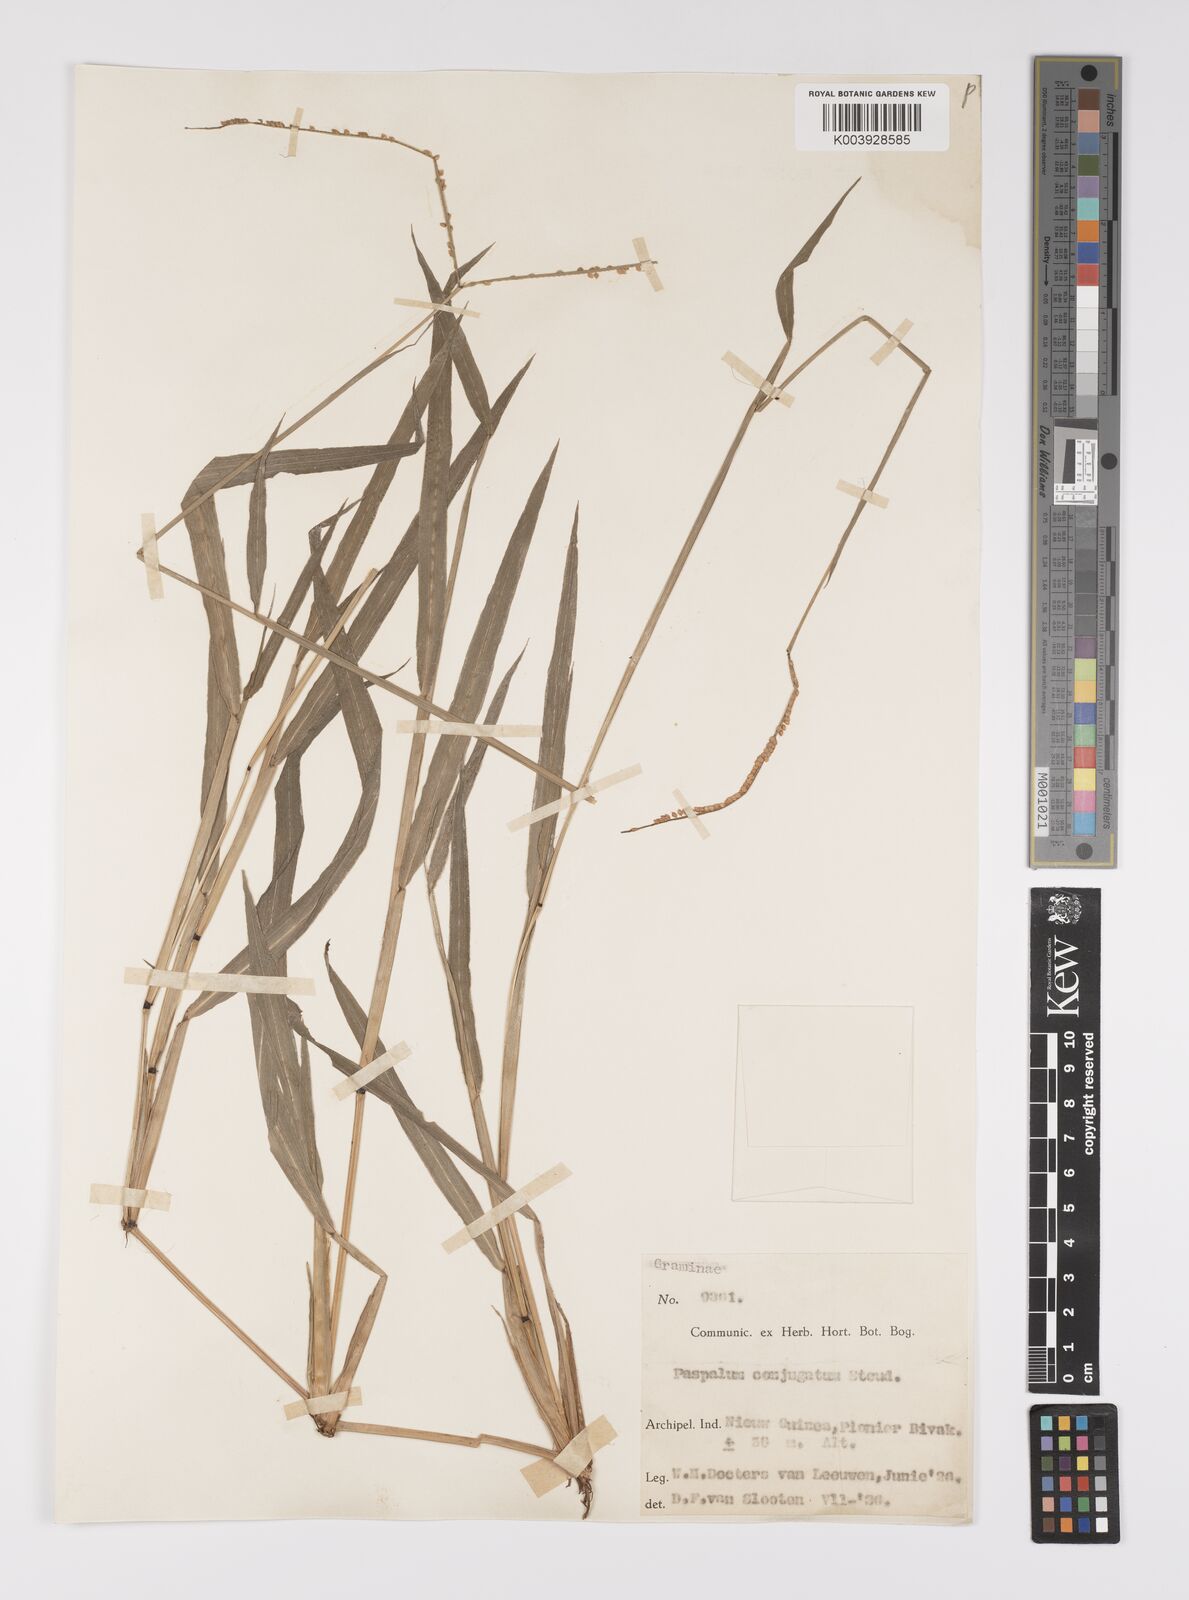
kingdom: Plantae
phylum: Tracheophyta
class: Liliopsida
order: Poales
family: Poaceae
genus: Paspalum
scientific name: Paspalum conjugatum
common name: Hilograss
